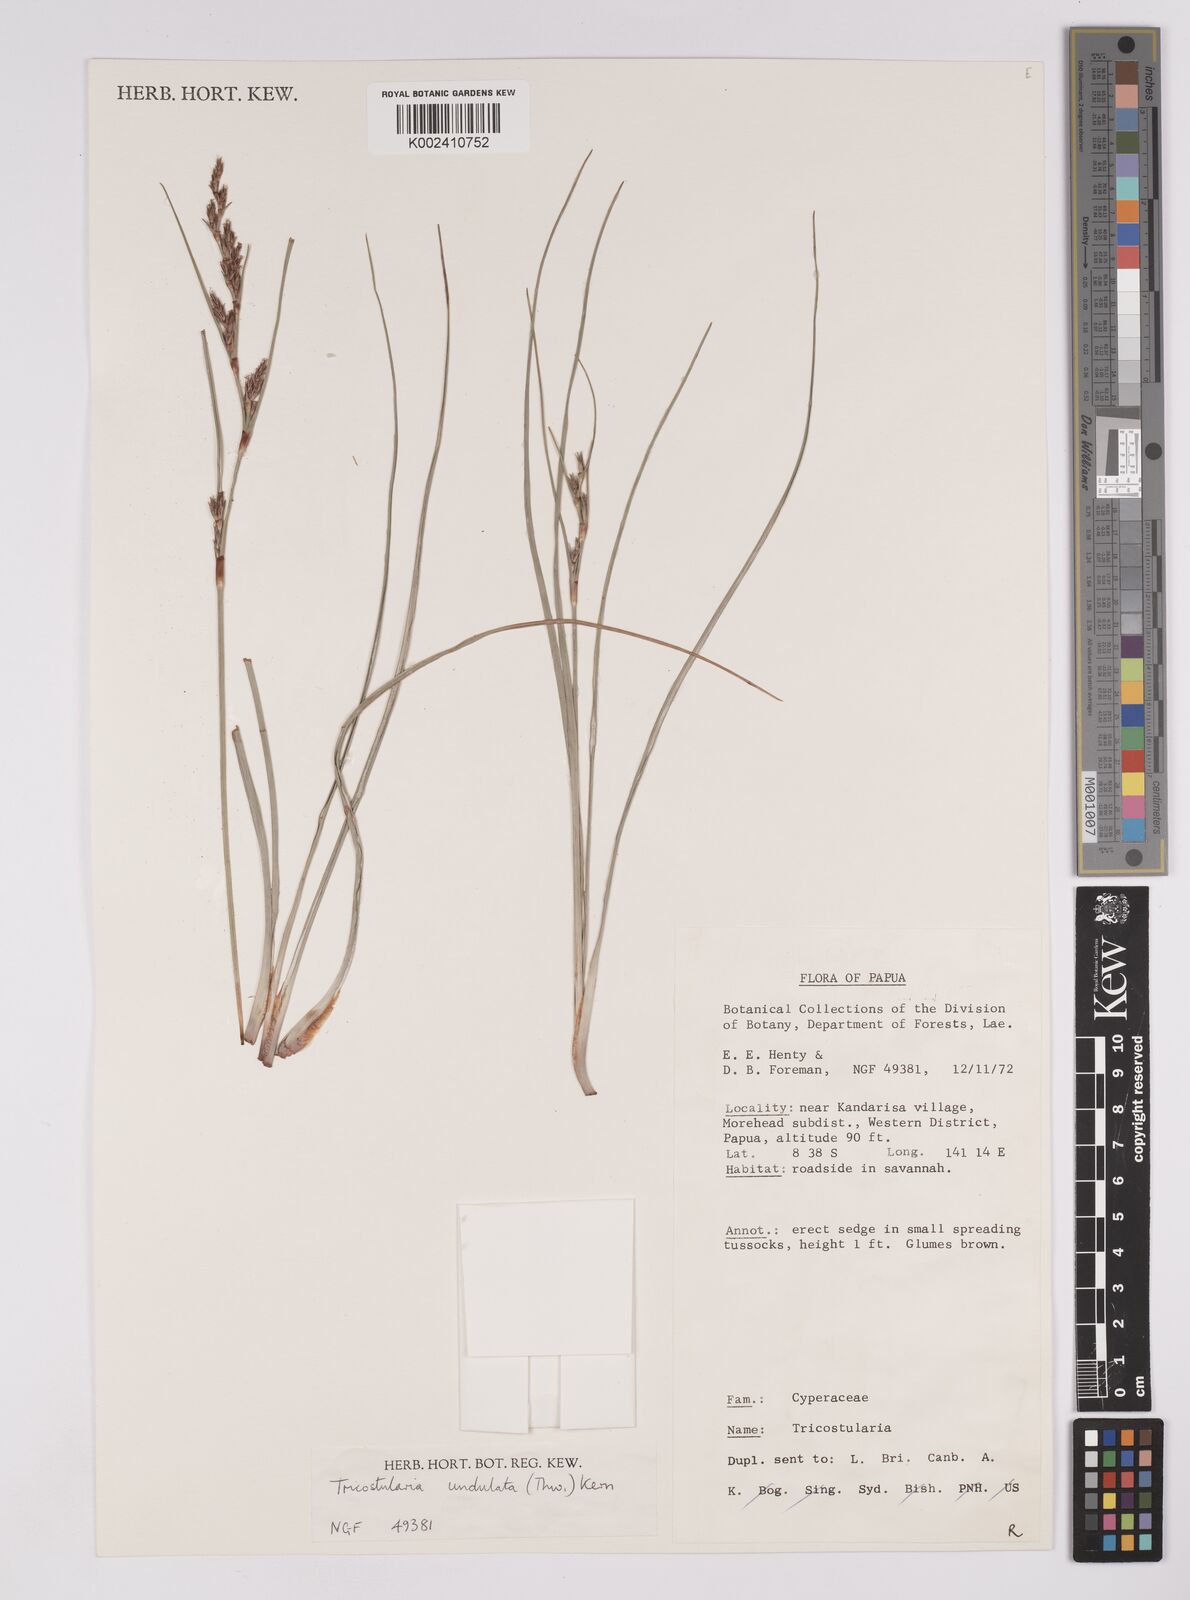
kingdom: Plantae
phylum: Tracheophyta
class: Liliopsida
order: Poales
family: Cyperaceae
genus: Anthelepis
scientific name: Anthelepis undulata
